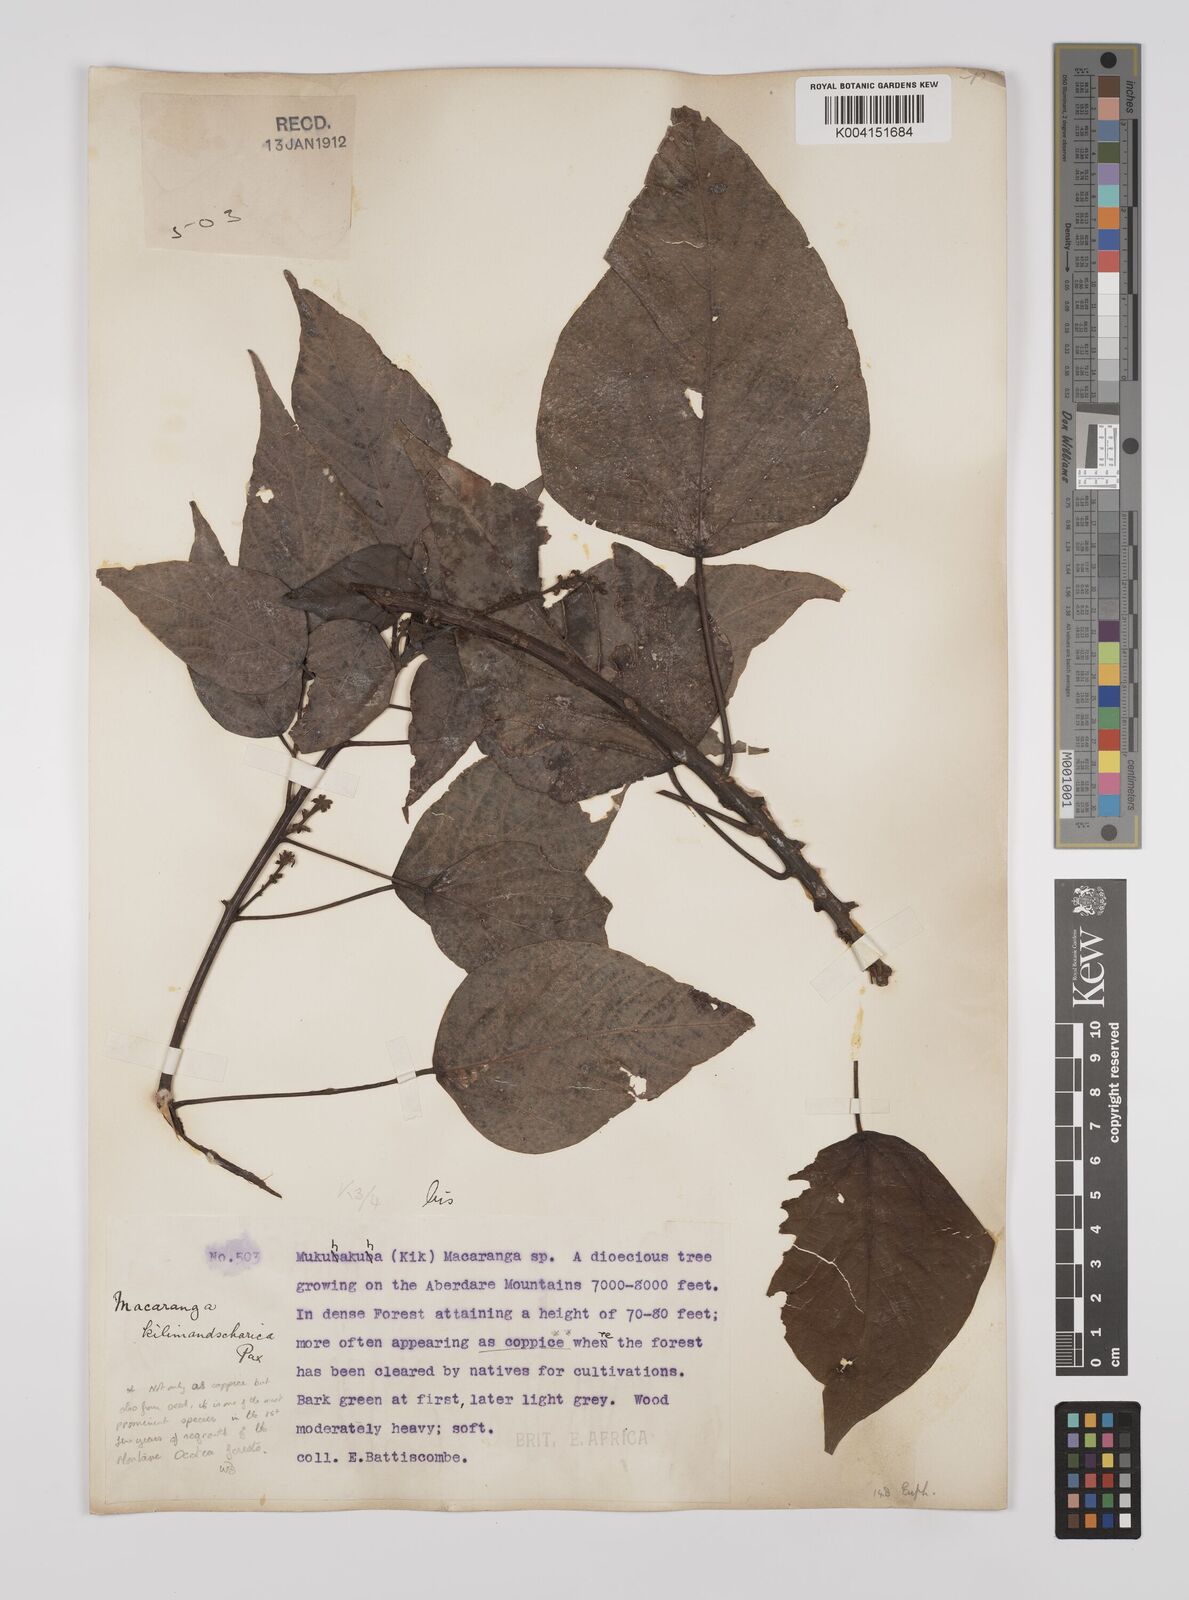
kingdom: Plantae
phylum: Tracheophyta
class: Magnoliopsida
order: Malpighiales
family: Euphorbiaceae
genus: Macaranga
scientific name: Macaranga kilimandscharica
